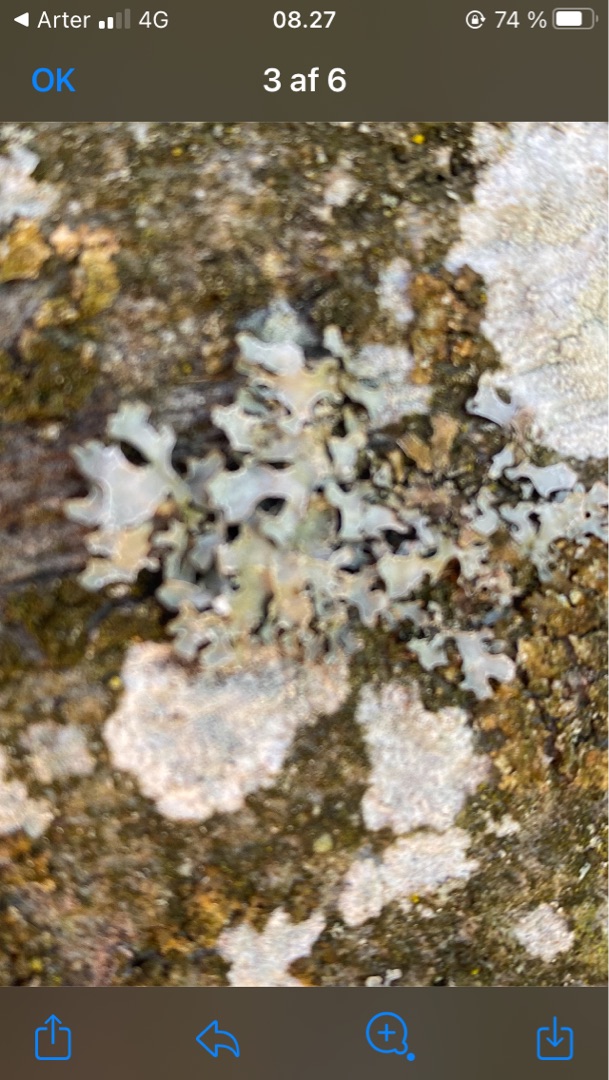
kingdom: Fungi
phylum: Ascomycota
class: Lecanoromycetes
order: Lecanorales
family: Parmeliaceae
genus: Parmelia
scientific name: Parmelia sulcata
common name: Rynket skållav
